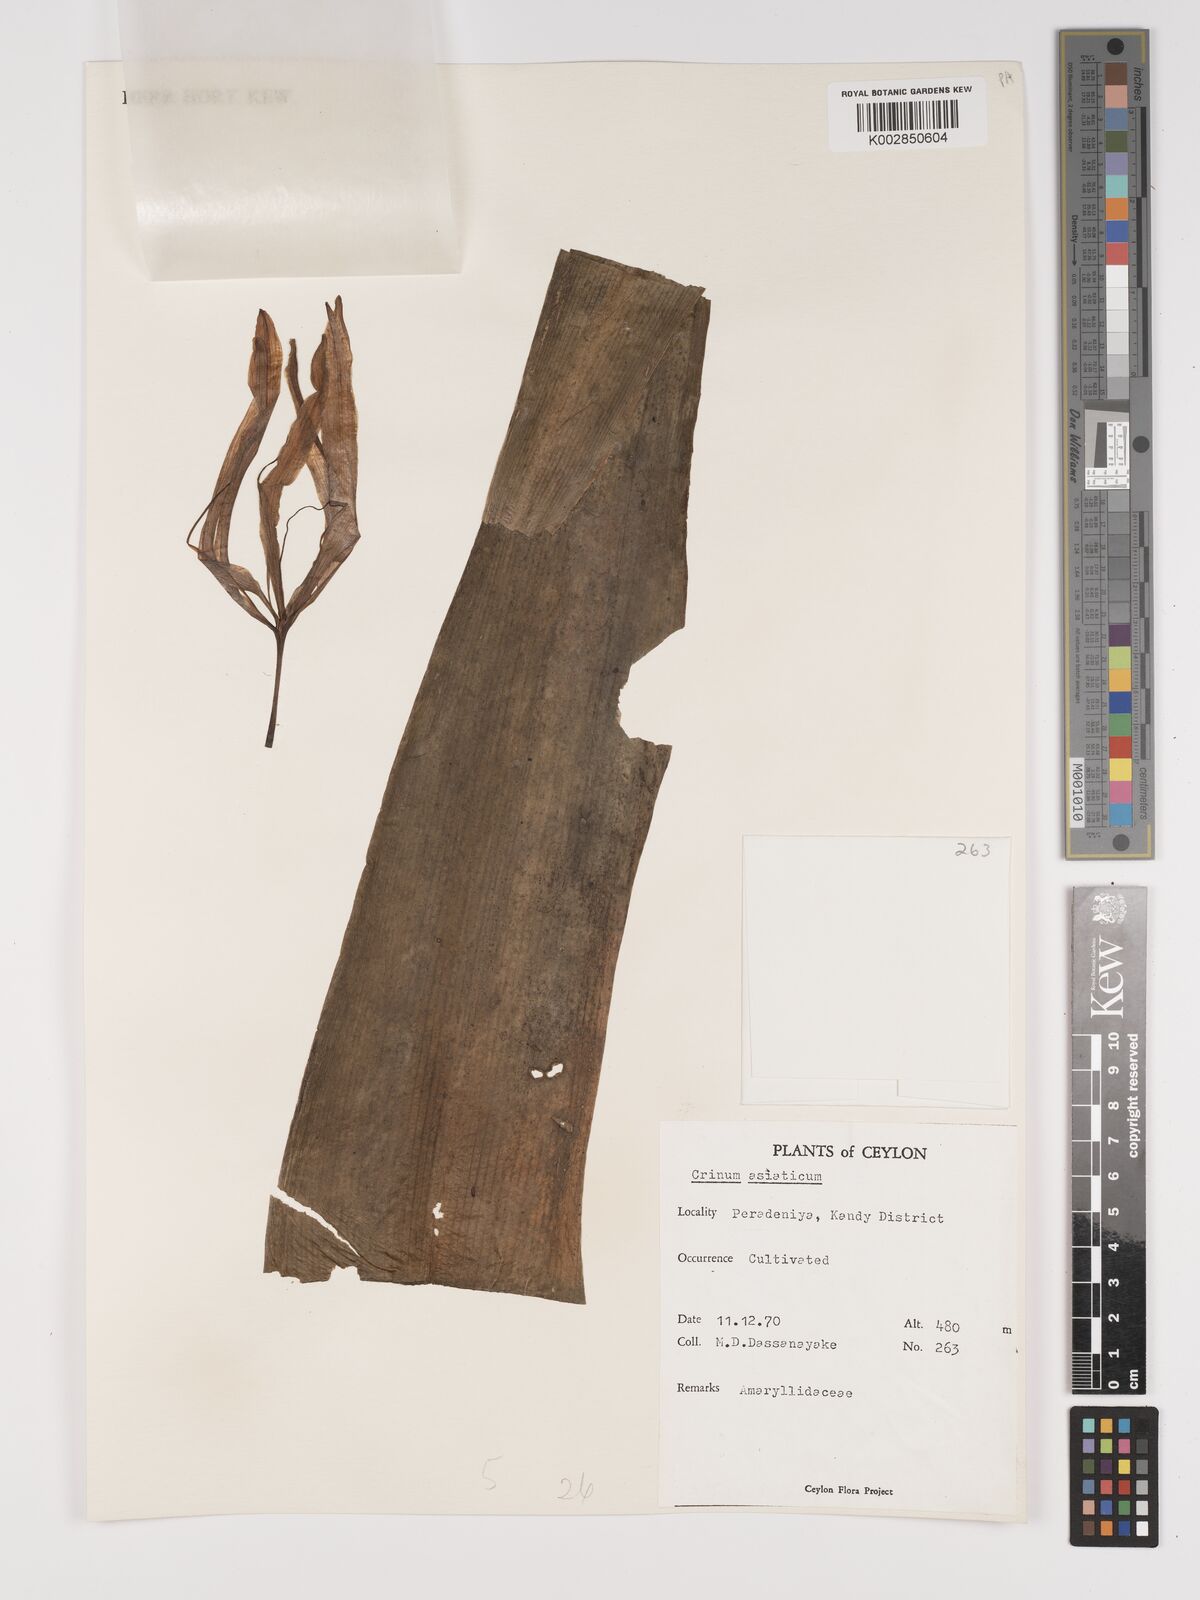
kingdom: Plantae
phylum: Tracheophyta
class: Liliopsida
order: Asparagales
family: Amaryllidaceae
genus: Crinum
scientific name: Crinum asiaticum
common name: Poisonbulb
